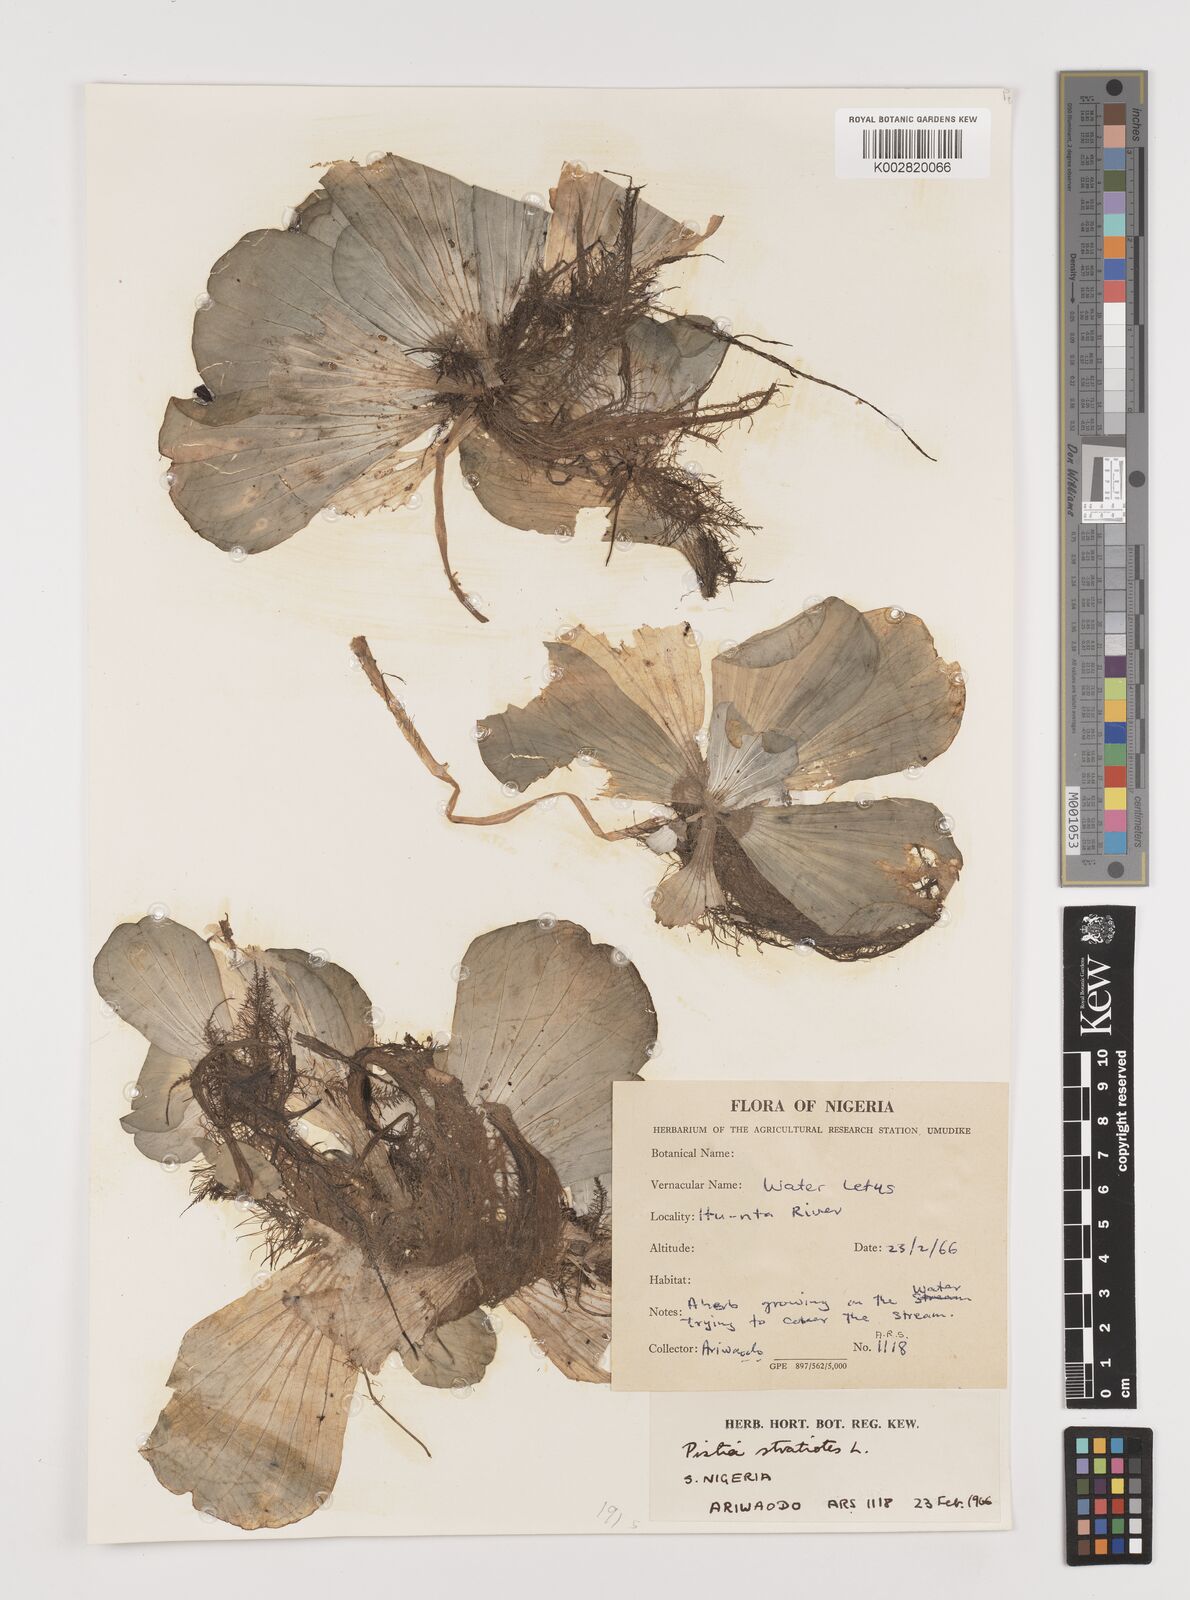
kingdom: Plantae
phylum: Tracheophyta
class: Liliopsida
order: Alismatales
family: Araceae
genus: Pistia
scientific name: Pistia stratiotes
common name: Water lettuce
